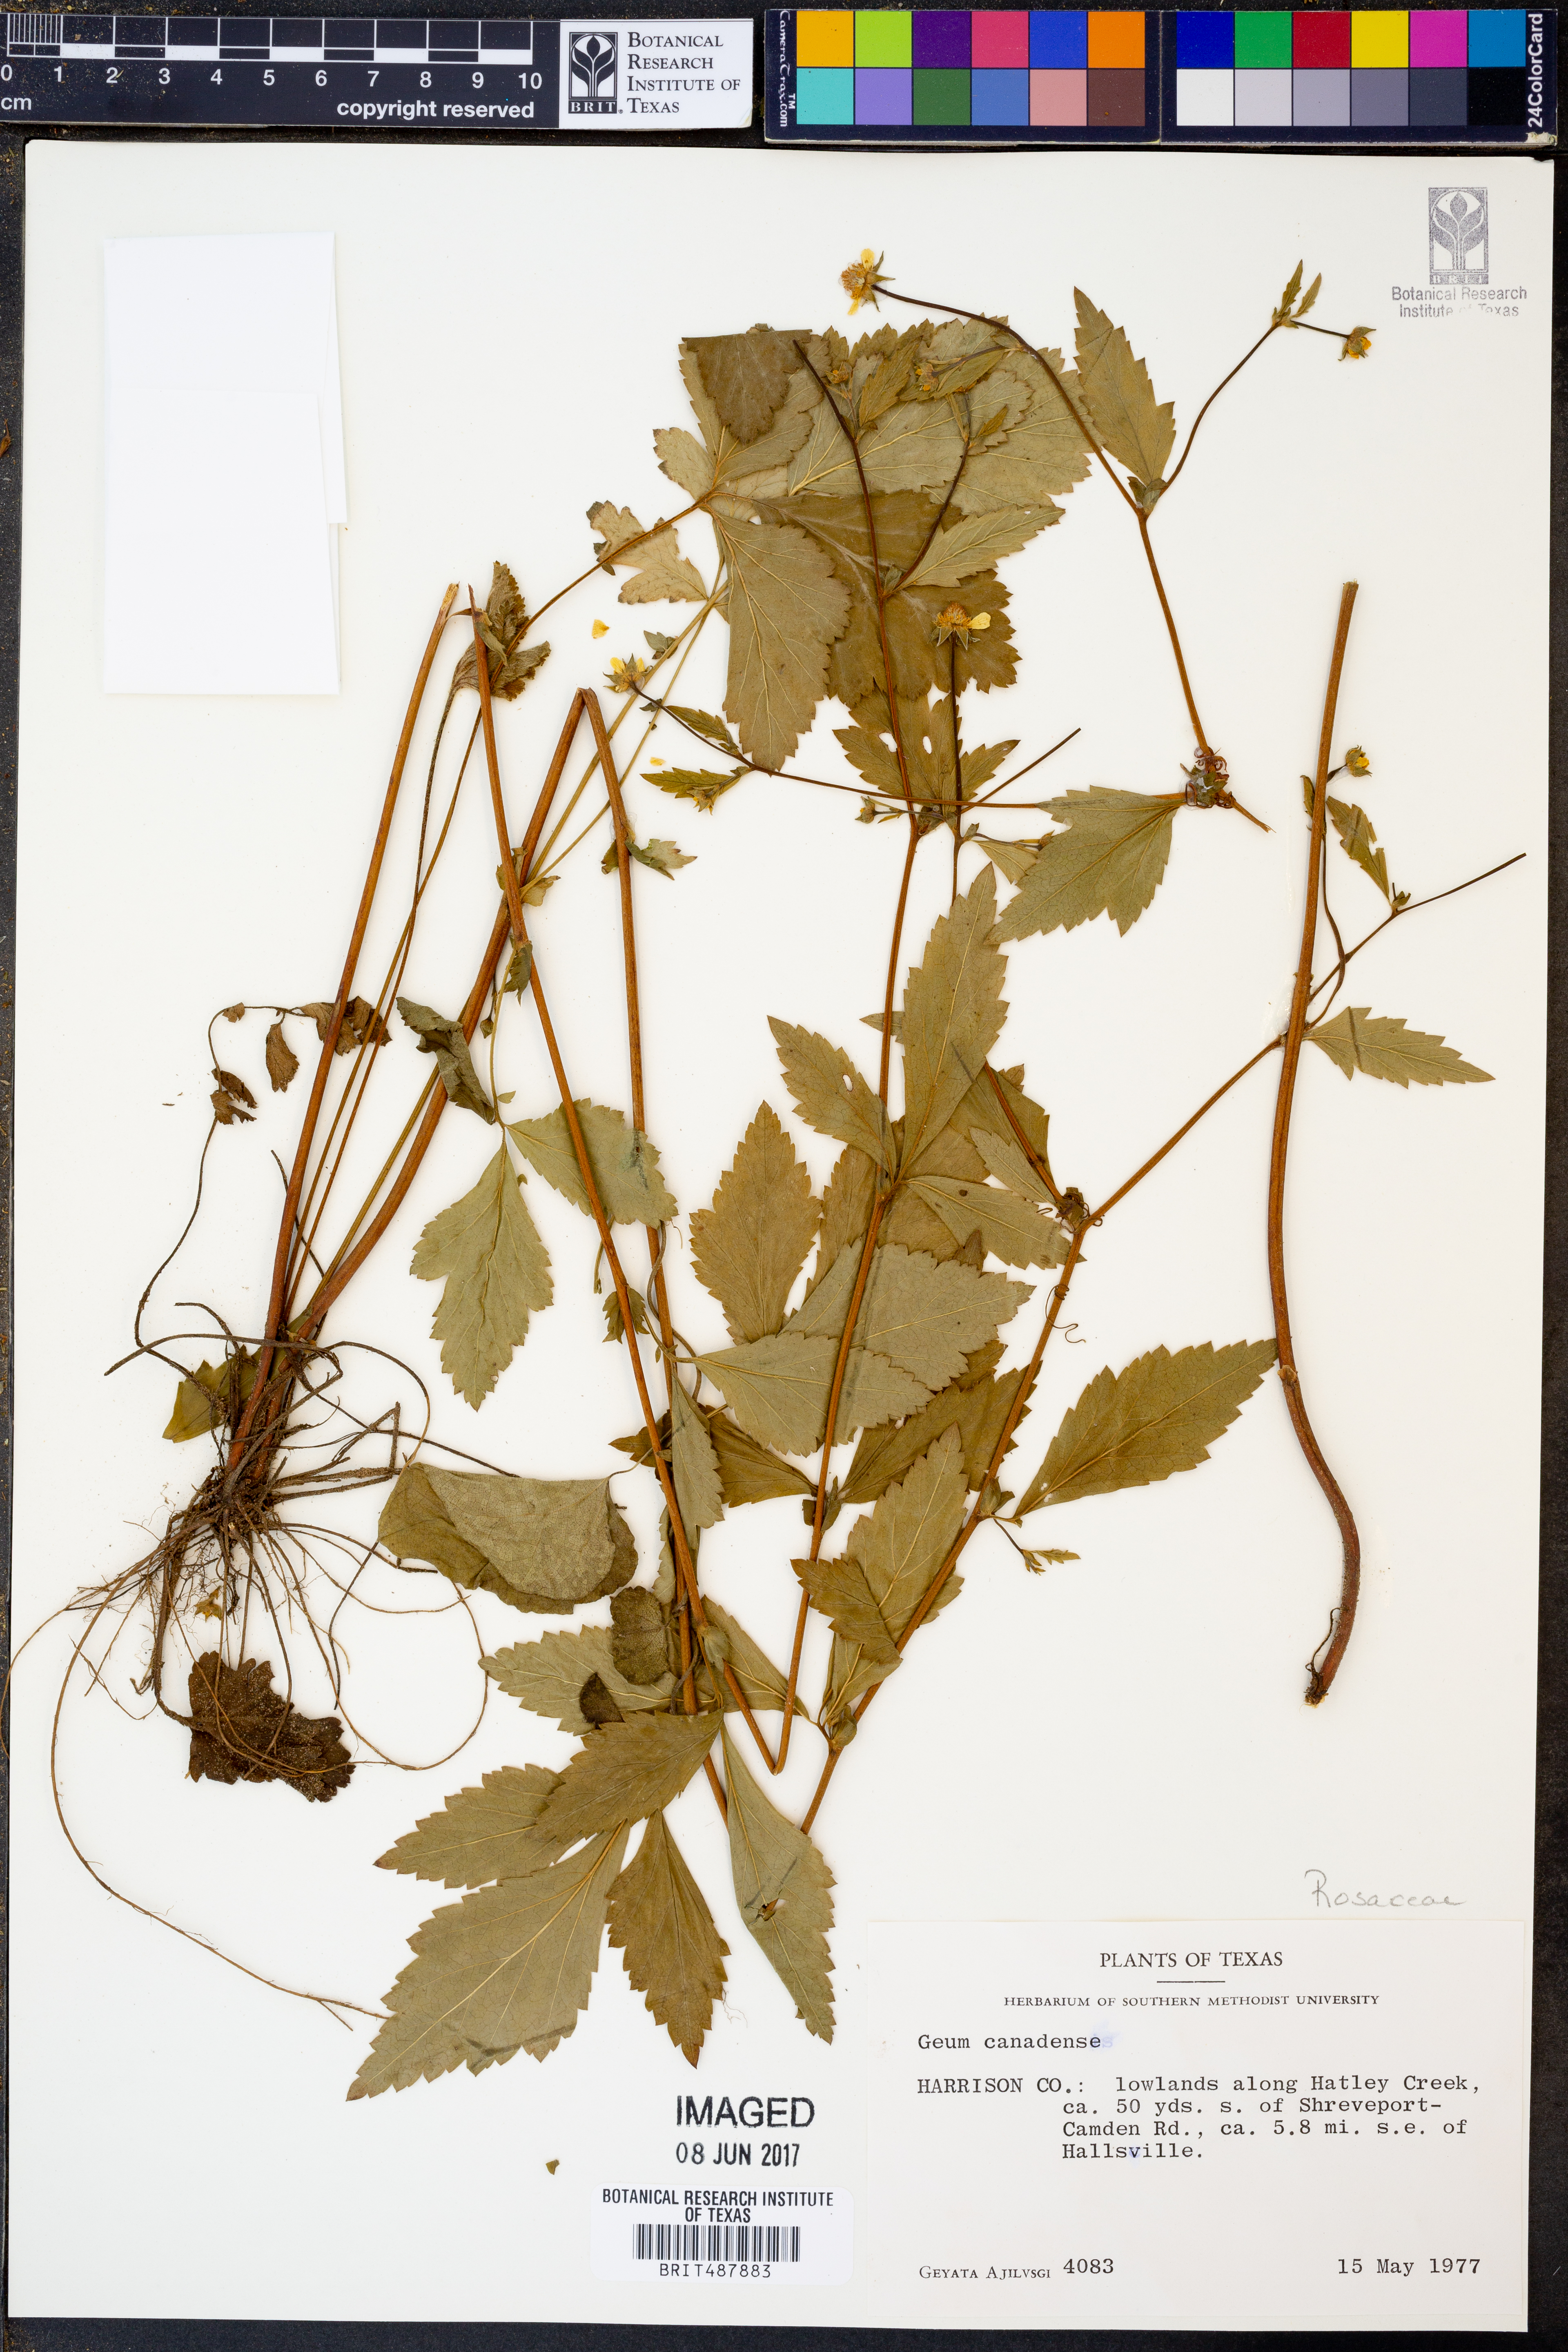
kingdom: Plantae
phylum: Tracheophyta
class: Magnoliopsida
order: Rosales
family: Rosaceae
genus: Geum
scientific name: Geum canadense
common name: White avens
